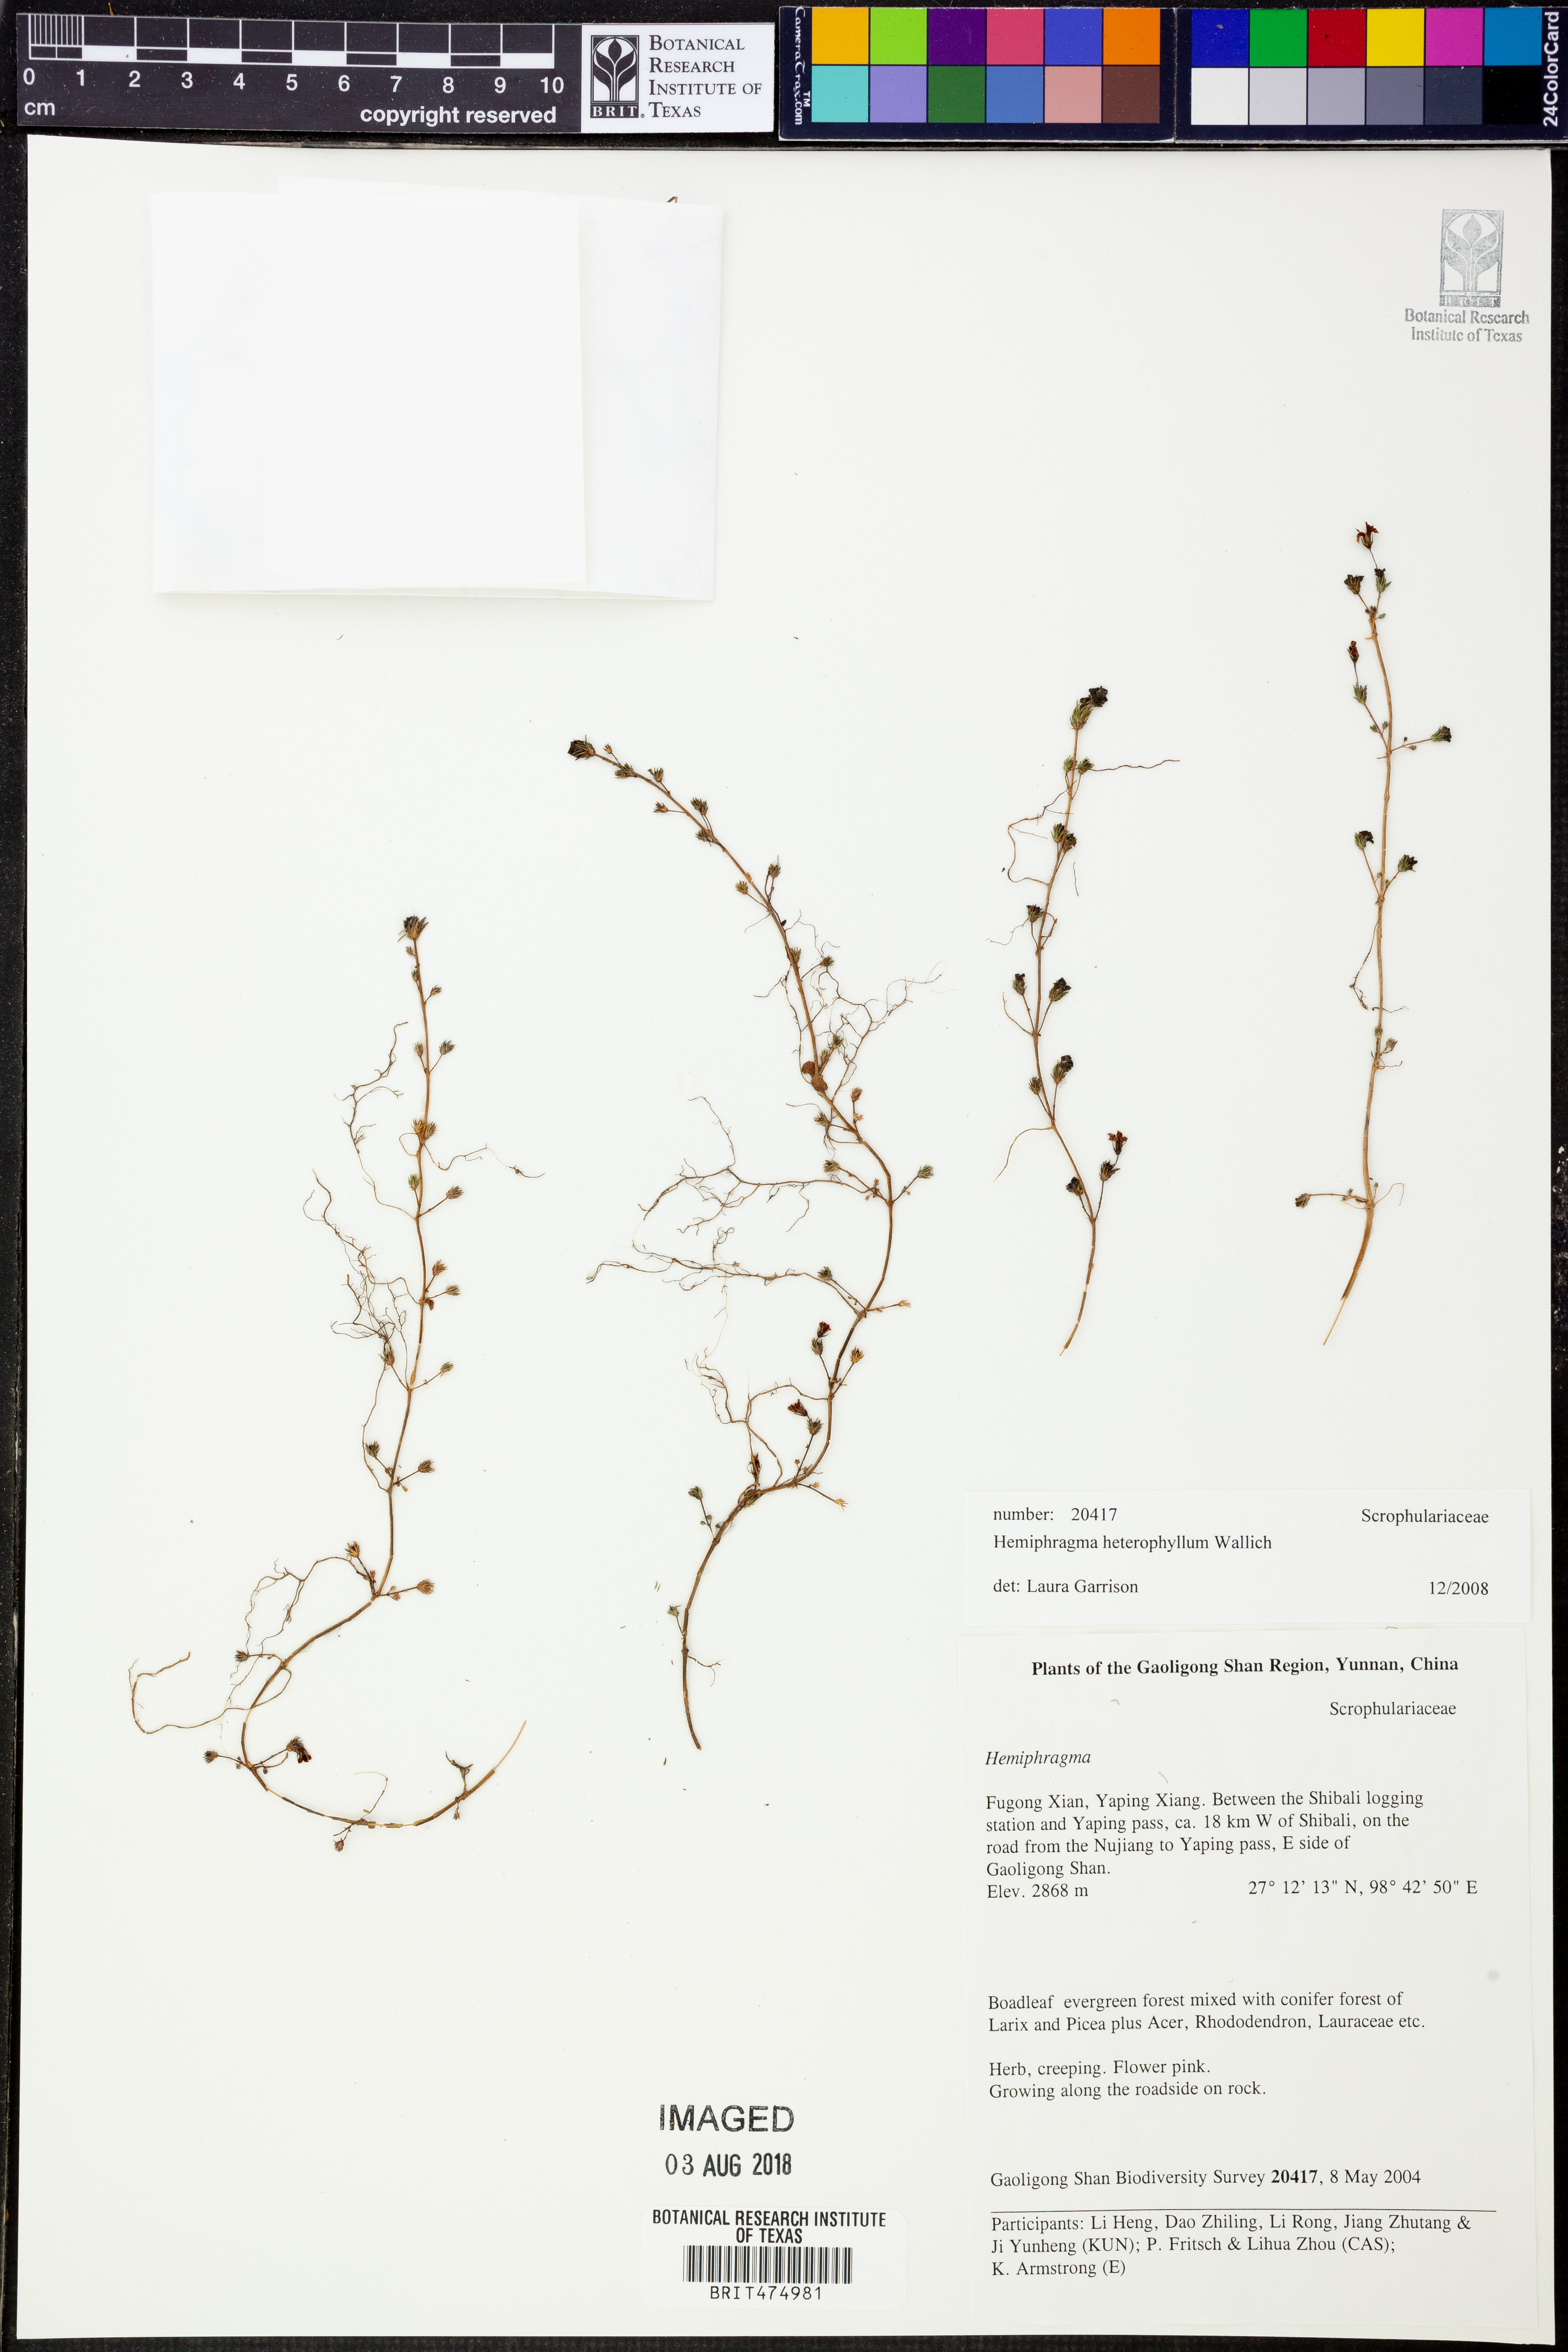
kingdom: Plantae
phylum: Tracheophyta
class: Magnoliopsida
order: Lamiales
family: Plantaginaceae
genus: Hemiphragma
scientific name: Hemiphragma heterophyllum
